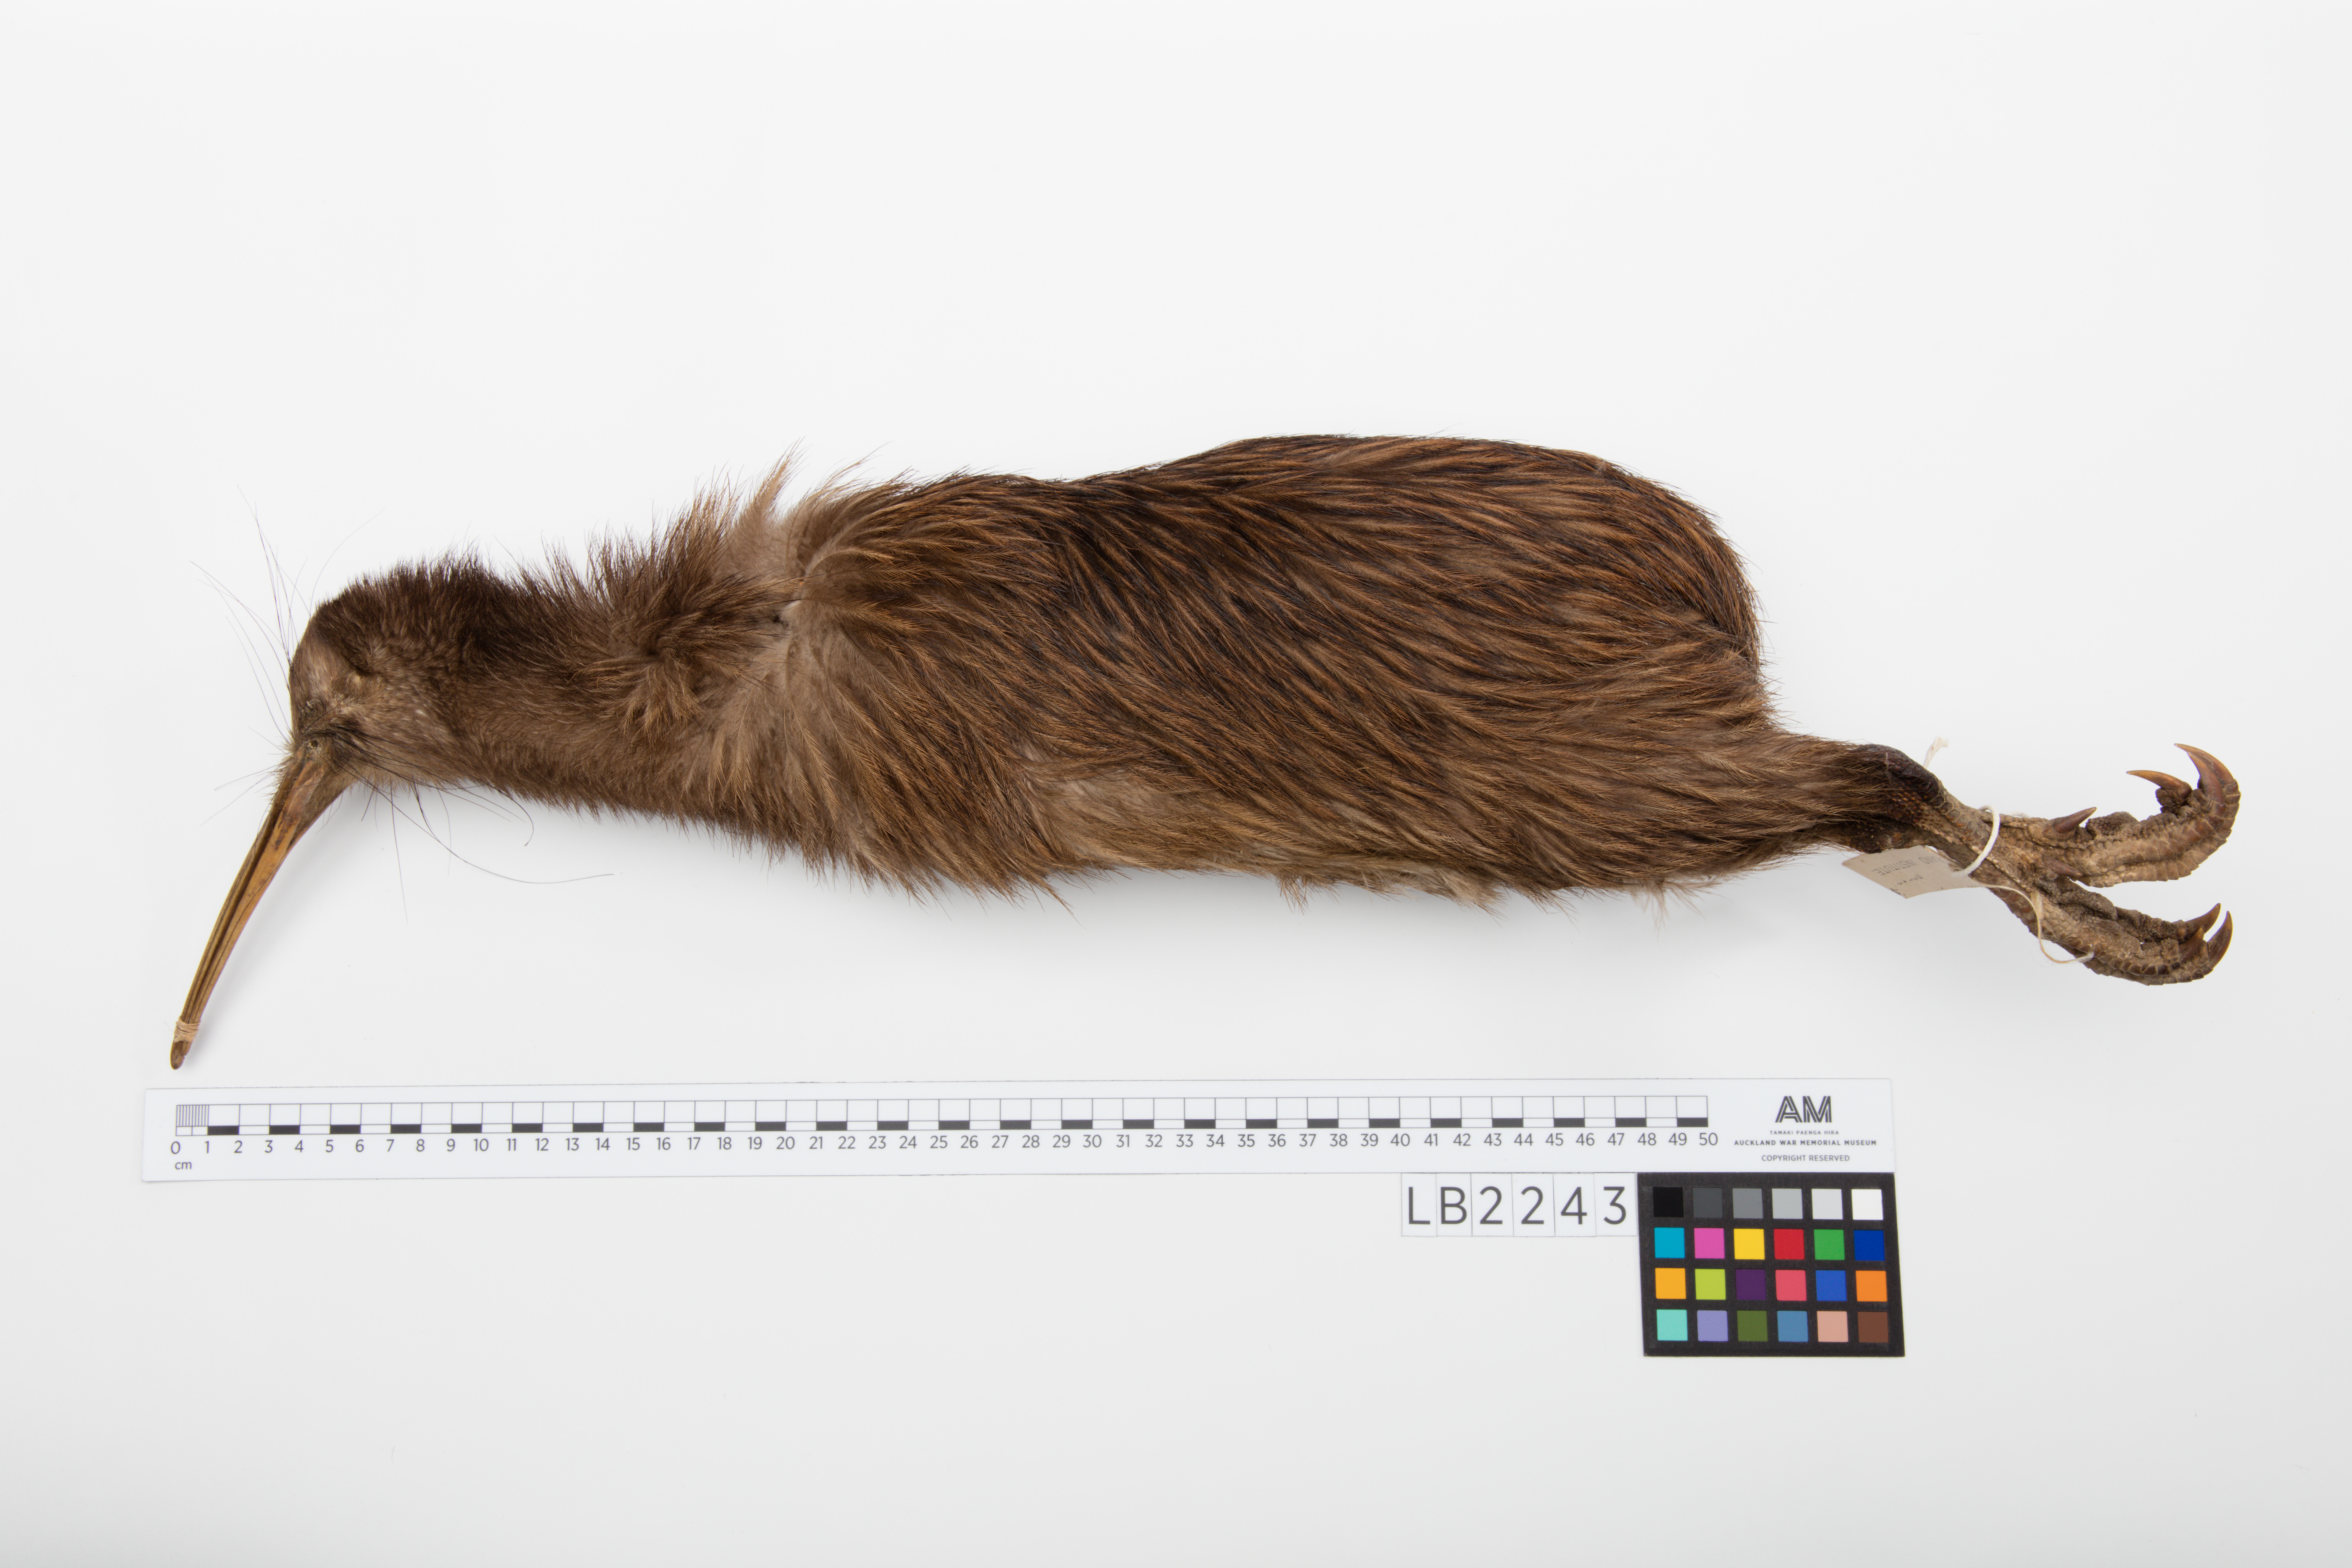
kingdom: Animalia
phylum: Chordata
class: Aves
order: Apterygiformes
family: Apterygidae
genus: Apteryx
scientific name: Apteryx mantelli
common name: North island brown kiwi
